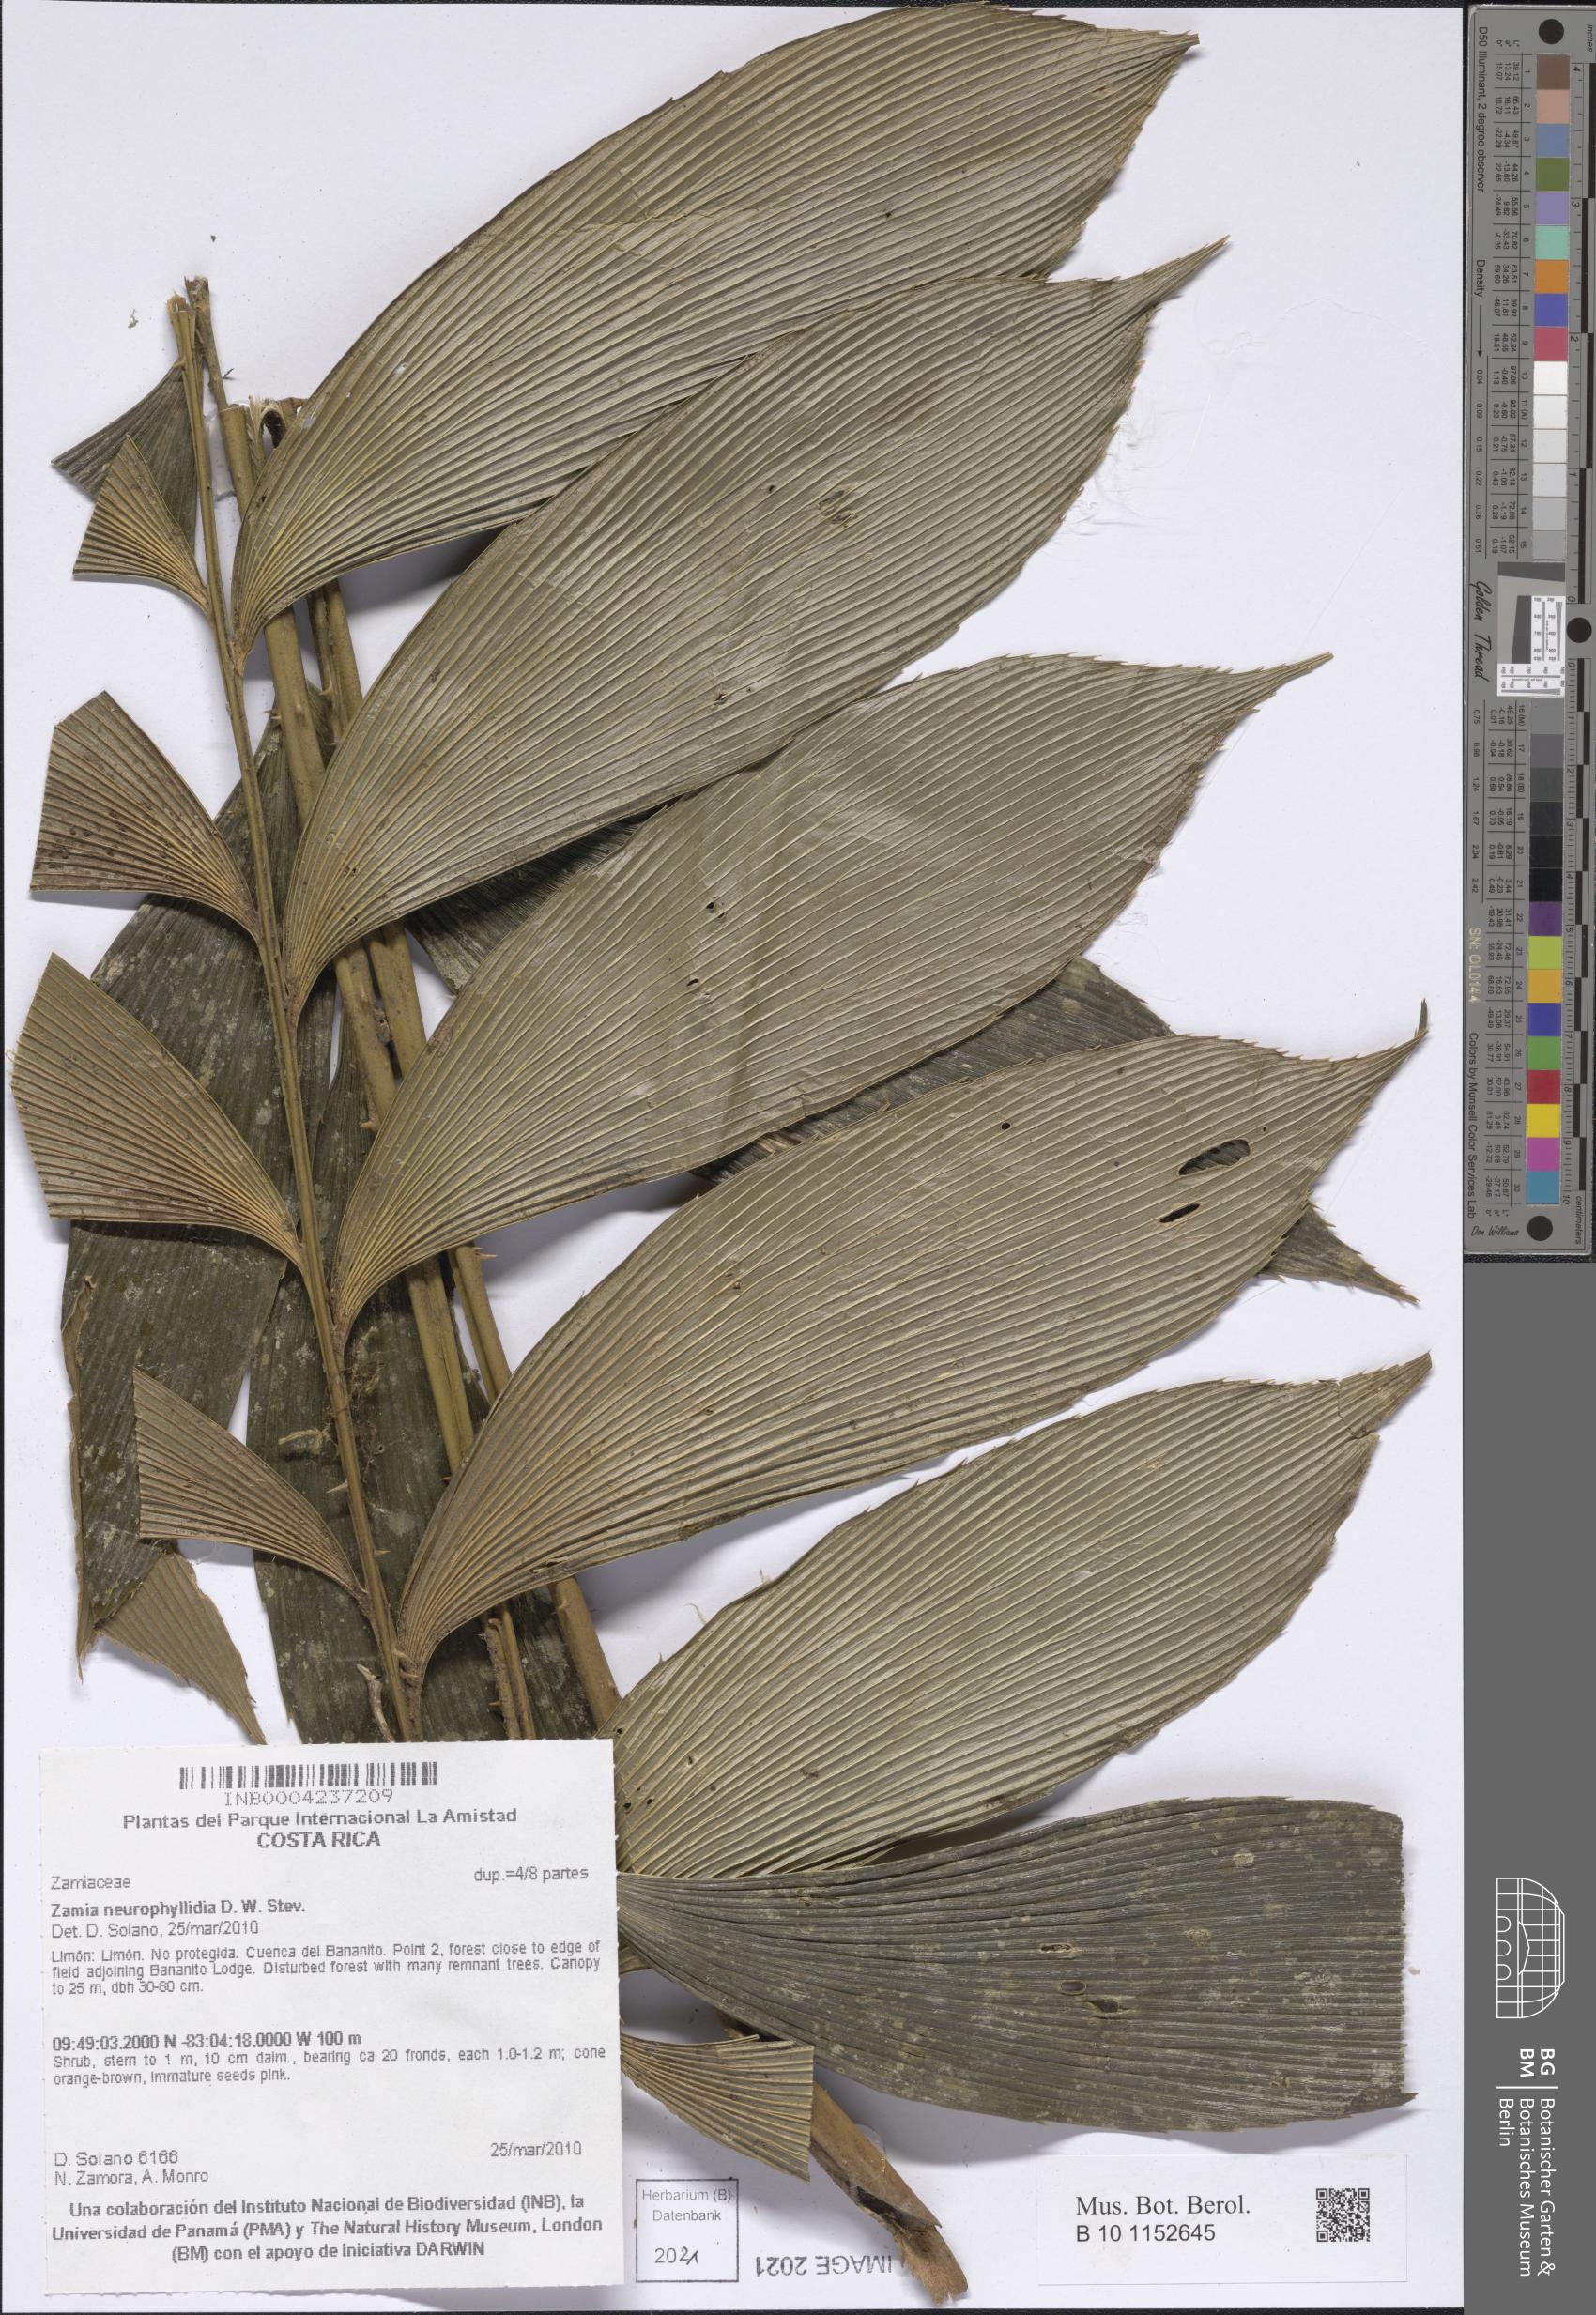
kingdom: Plantae
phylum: Tracheophyta
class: Cycadopsida
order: Cycadales
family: Zamiaceae
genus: Zamia
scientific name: Zamia neurophyllidia
